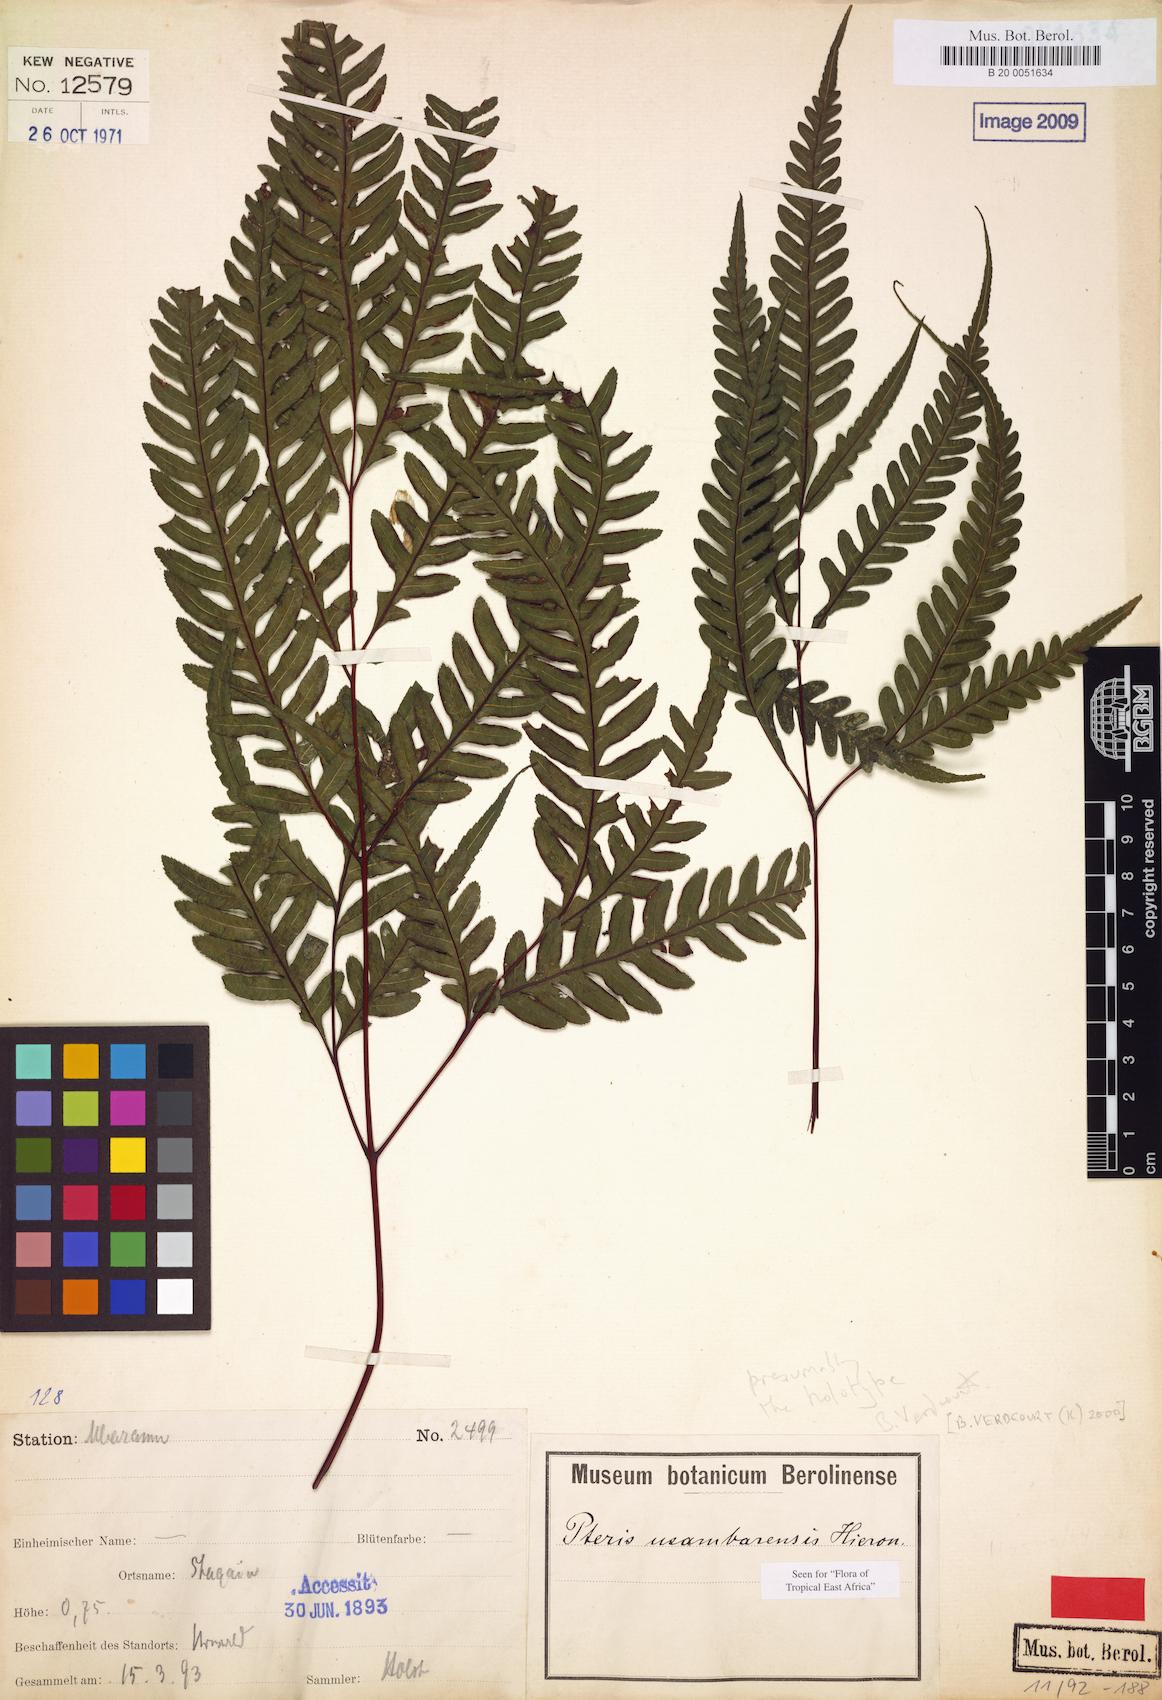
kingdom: Plantae
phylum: Tracheophyta
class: Polypodiopsida
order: Polypodiales
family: Pteridaceae
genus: Pteris
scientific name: Pteris usambarensis
